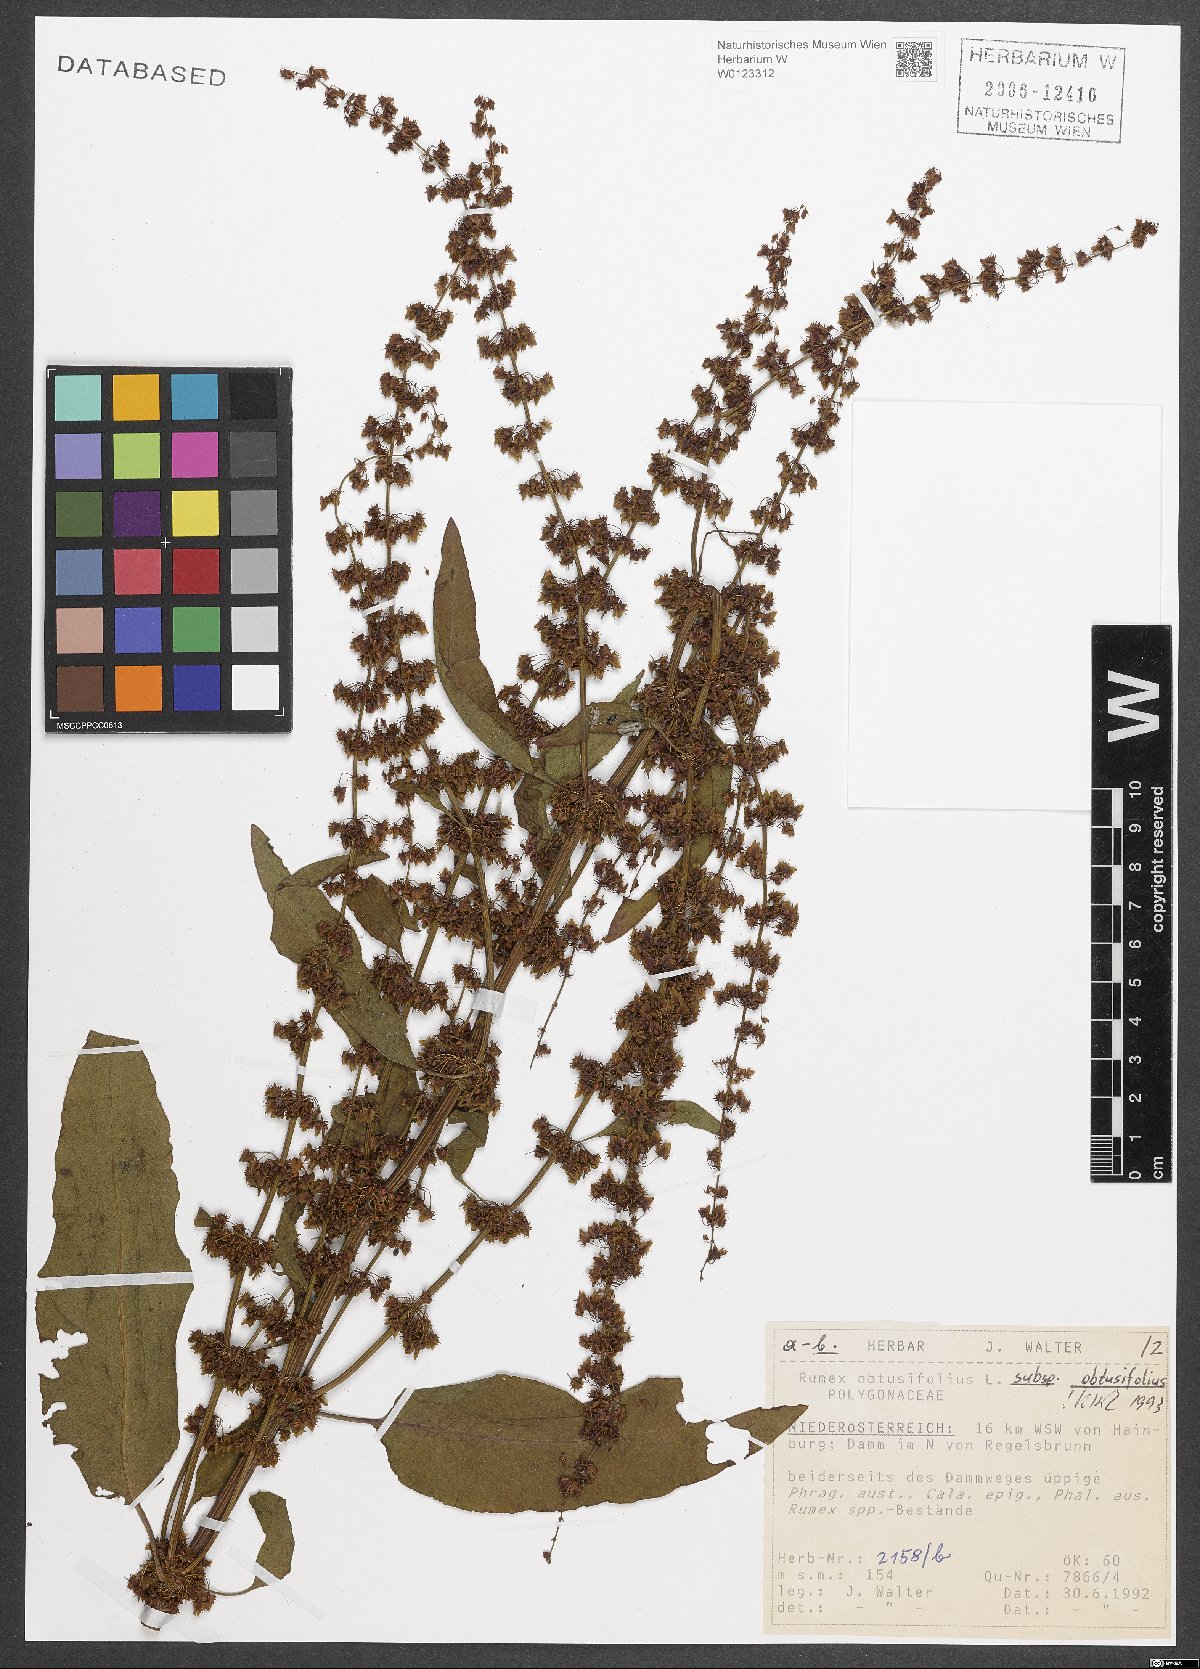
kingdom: Plantae
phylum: Tracheophyta
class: Magnoliopsida
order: Caryophyllales
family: Polygonaceae
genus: Rumex
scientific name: Rumex obtusifolius
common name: Bitter dock
